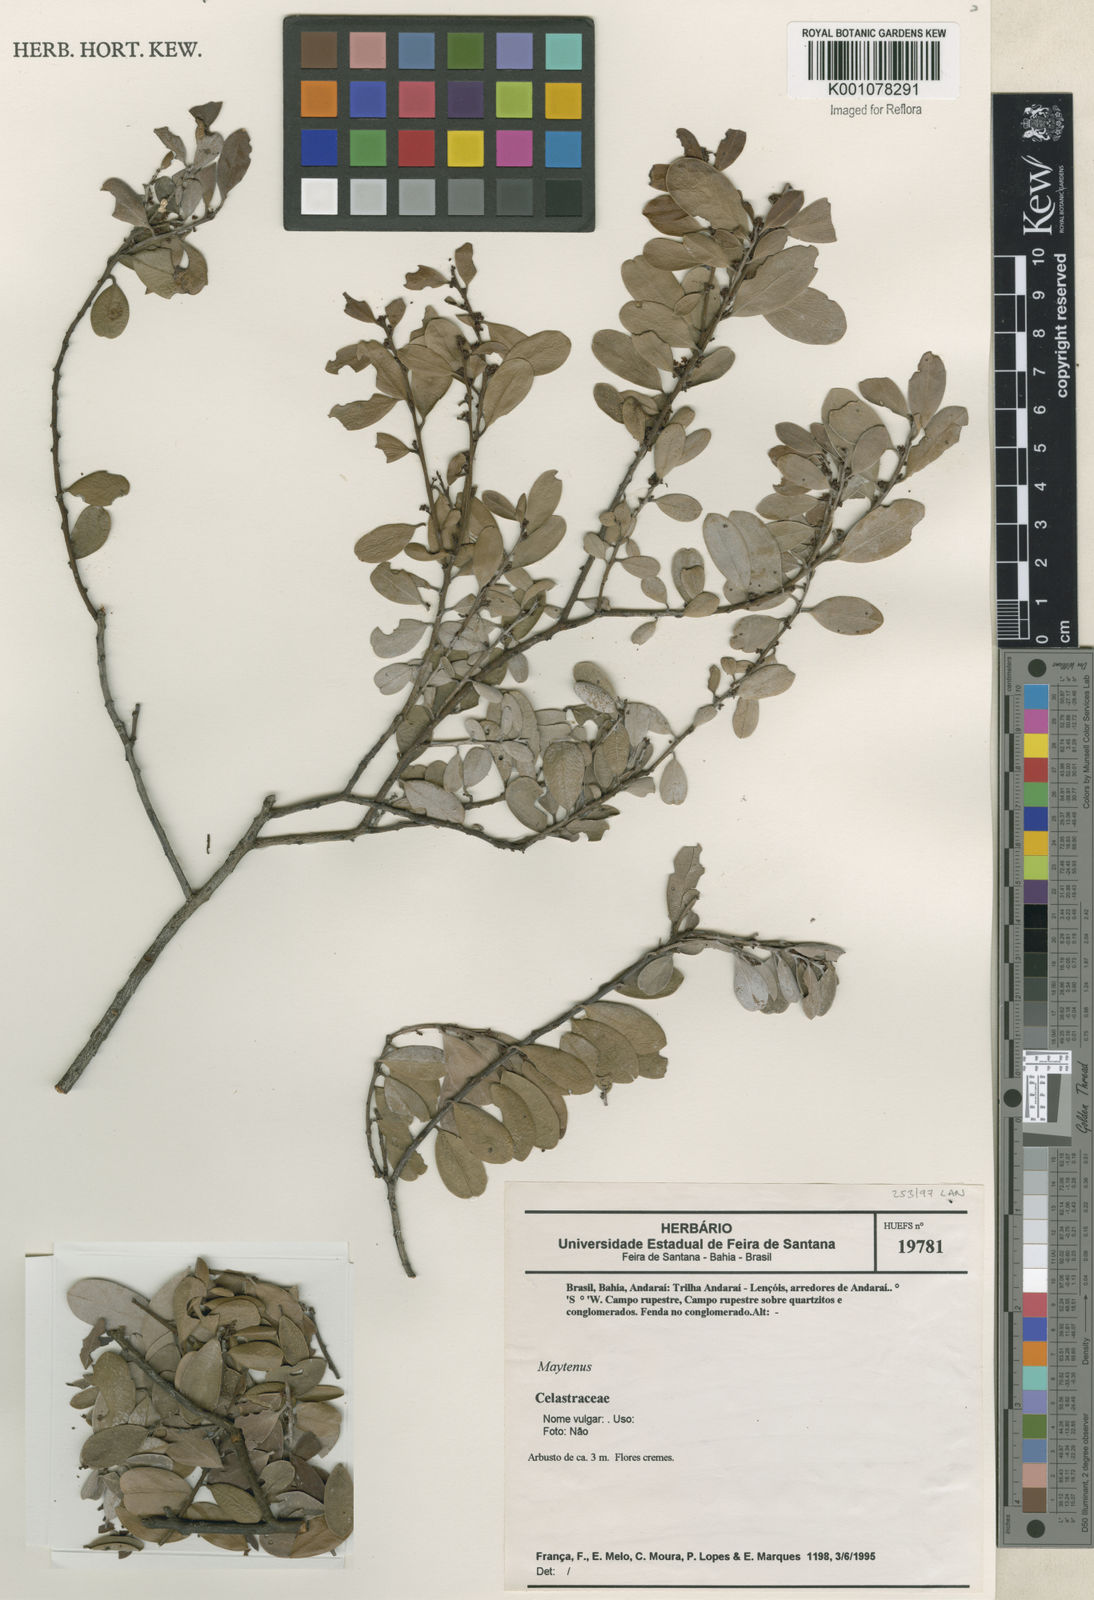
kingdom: Plantae
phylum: Tracheophyta
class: Magnoliopsida
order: Celastrales
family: Celastraceae
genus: Maytenus
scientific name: Maytenus
